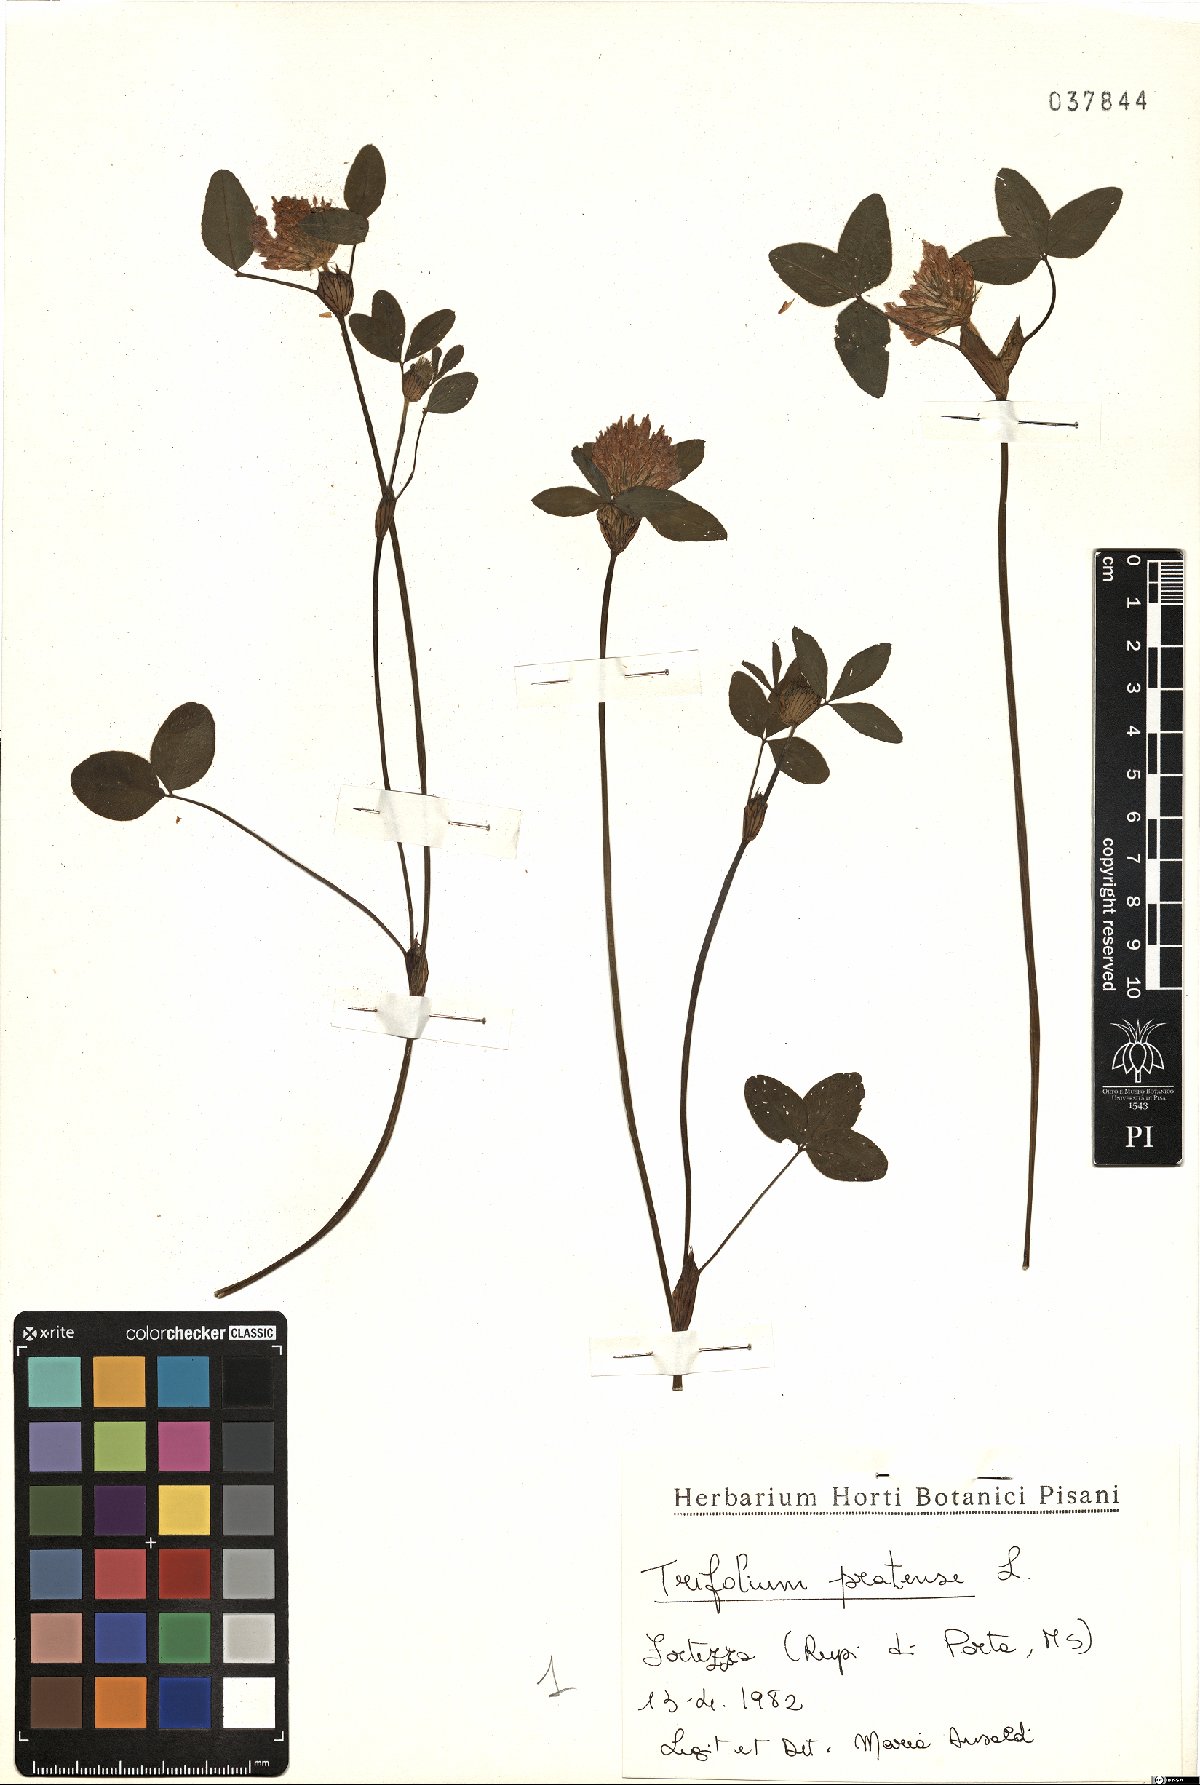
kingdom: Plantae
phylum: Tracheophyta
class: Magnoliopsida
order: Fabales
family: Fabaceae
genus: Trifolium
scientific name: Trifolium pratense
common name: Red clover
